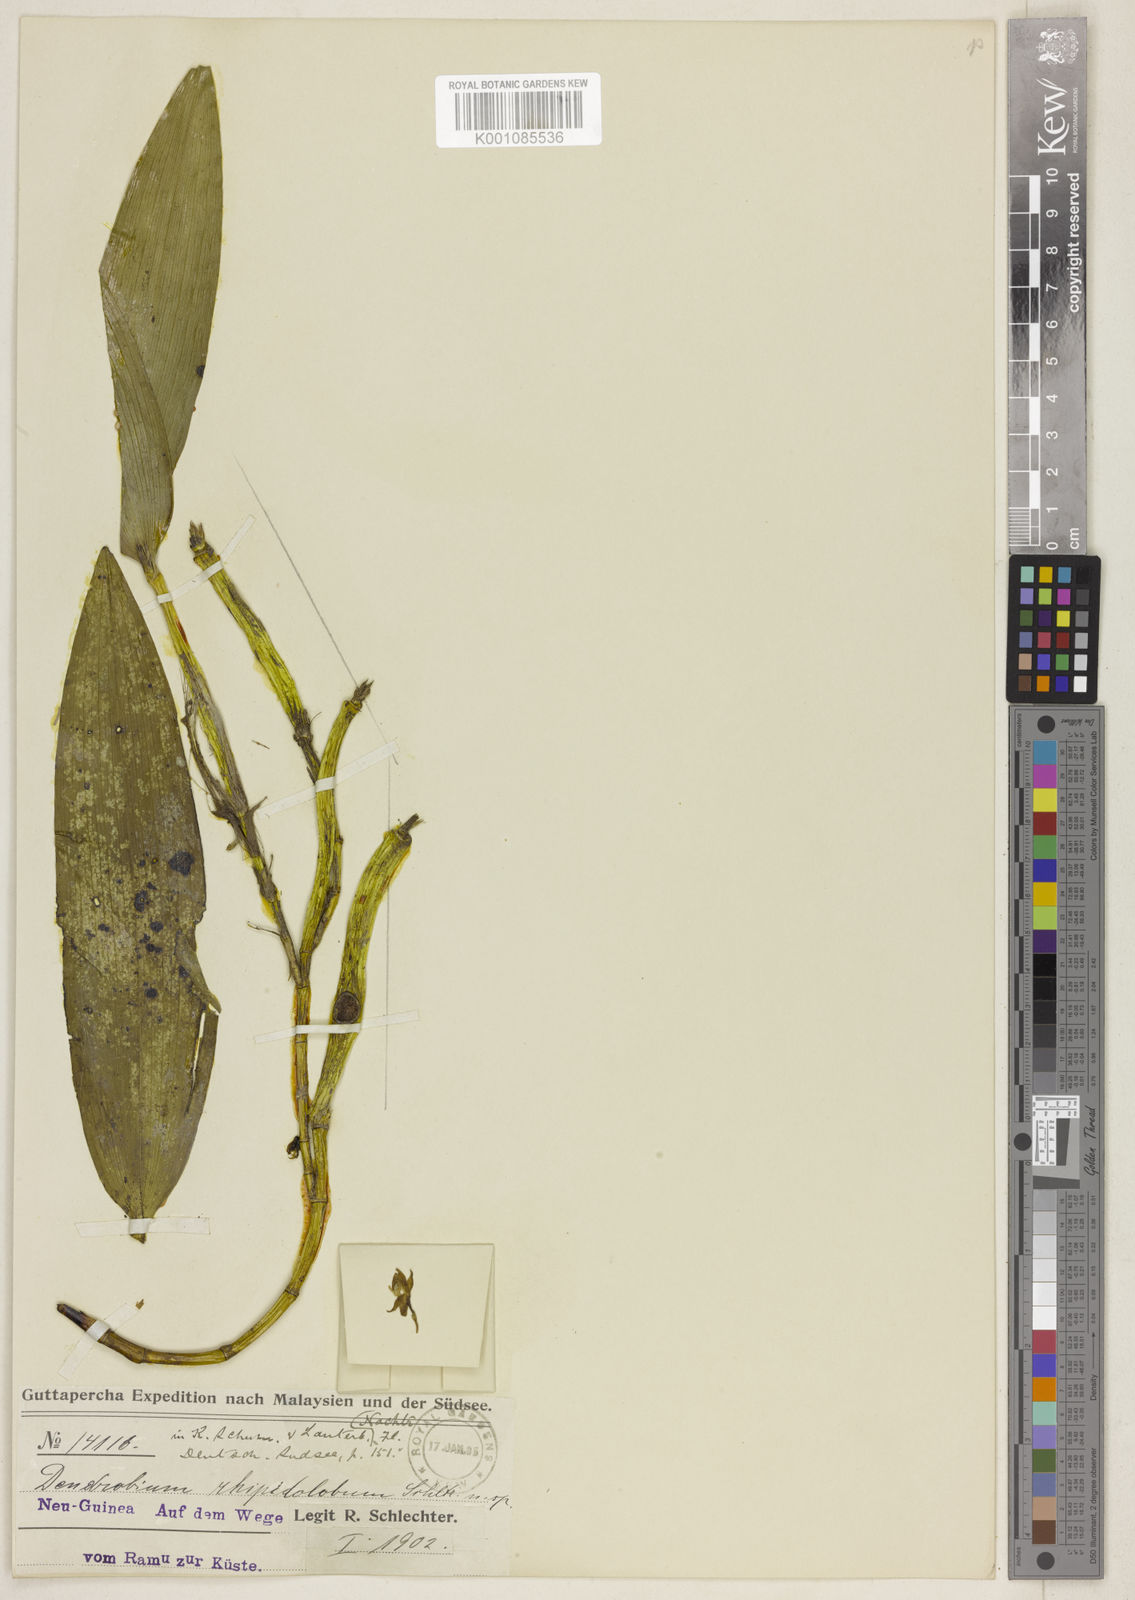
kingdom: Plantae
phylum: Tracheophyta
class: Liliopsida
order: Asparagales
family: Orchidaceae
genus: Dendrobium
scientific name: Dendrobium rhipidolobum
